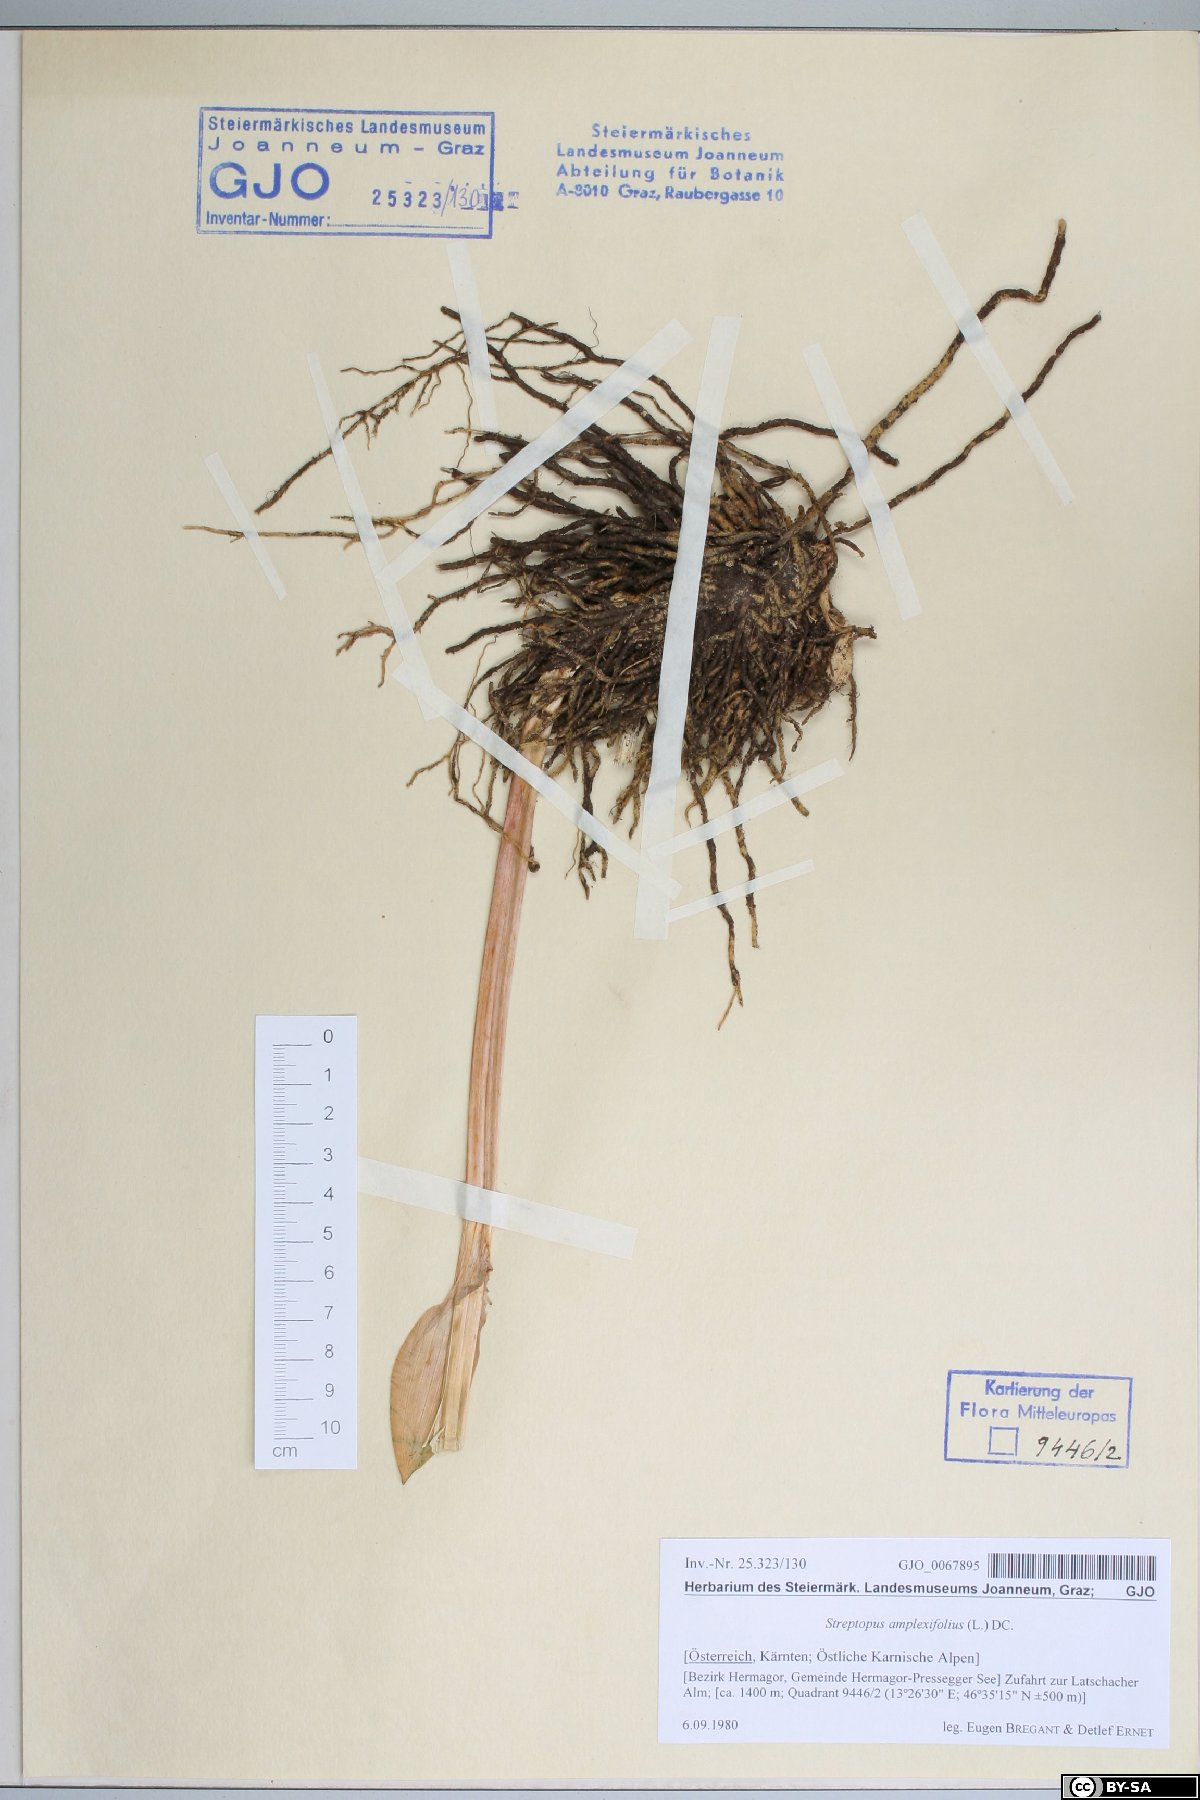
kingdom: Plantae
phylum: Tracheophyta
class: Liliopsida
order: Liliales
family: Liliaceae
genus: Streptopus
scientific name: Streptopus amplexifolius
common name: Clasp twisted stalk
